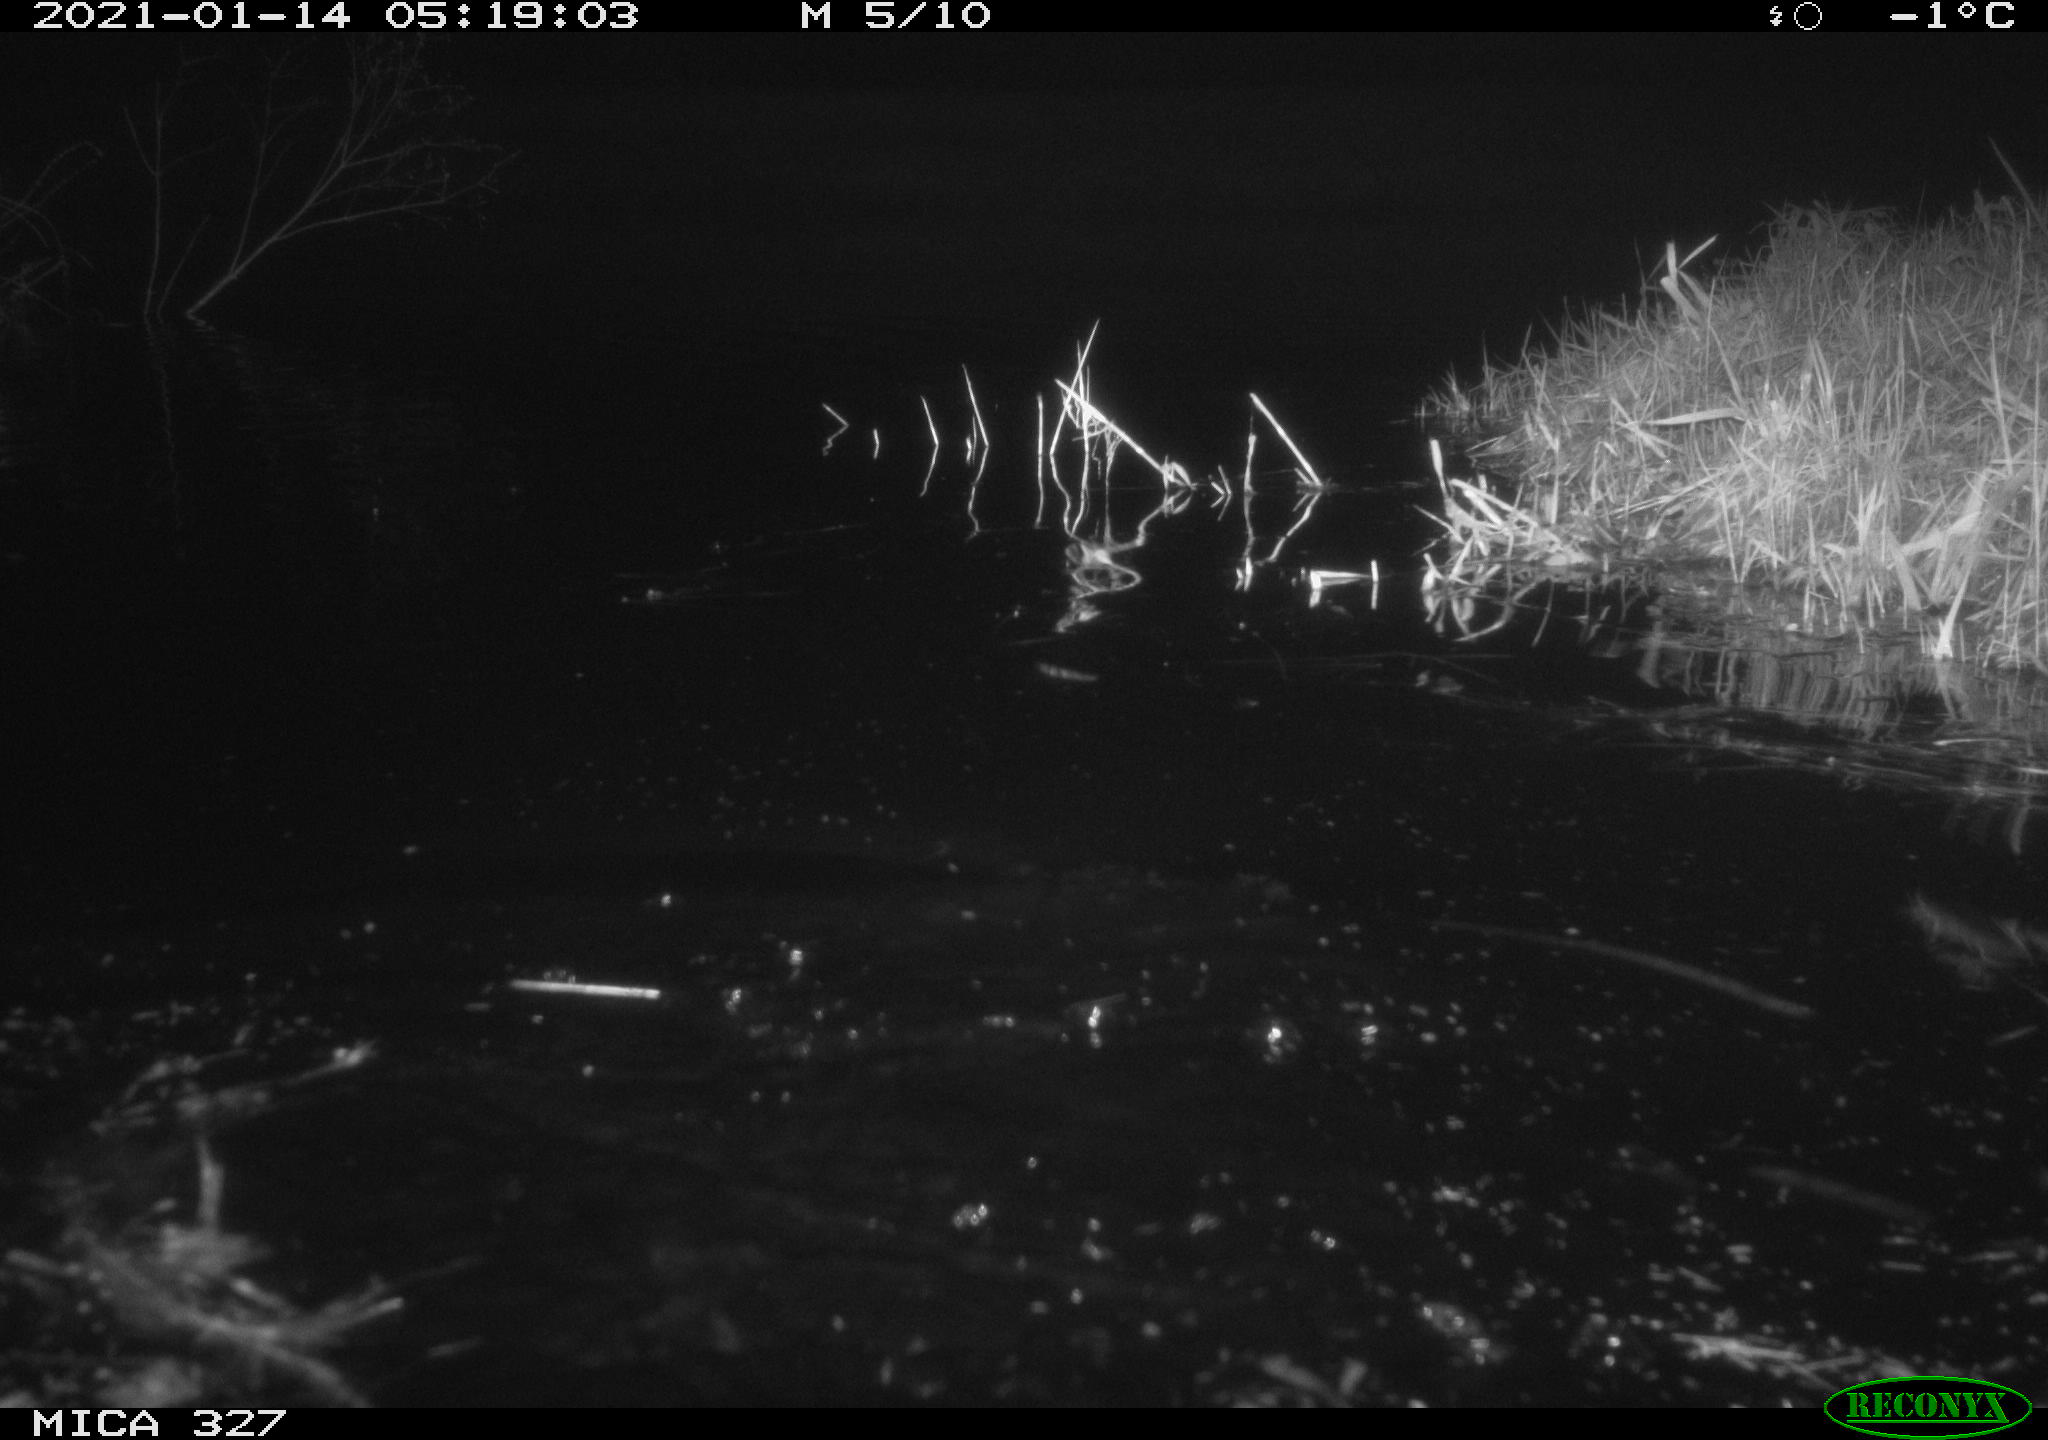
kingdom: Animalia
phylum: Chordata
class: Mammalia
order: Rodentia
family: Cricetidae
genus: Ondatra
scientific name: Ondatra zibethicus
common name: Muskrat
